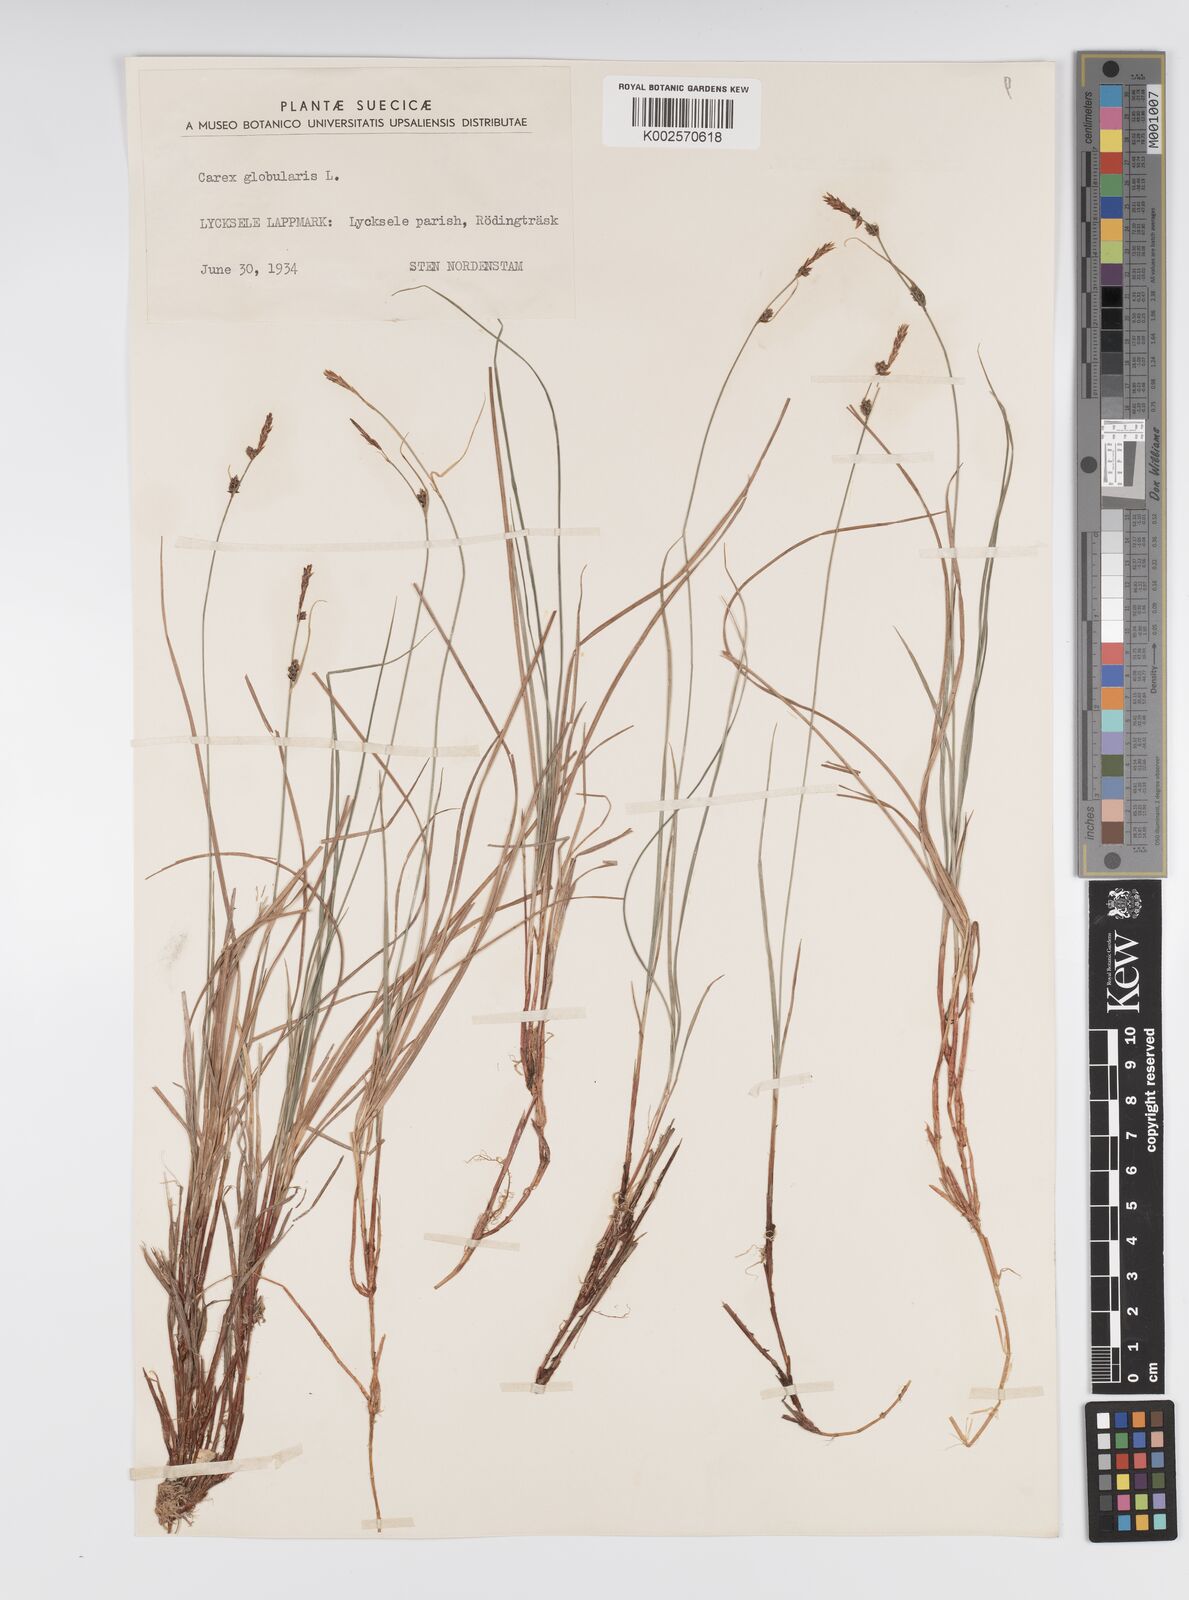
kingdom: Plantae
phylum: Tracheophyta
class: Liliopsida
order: Poales
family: Cyperaceae
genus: Carex
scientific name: Carex globularis
